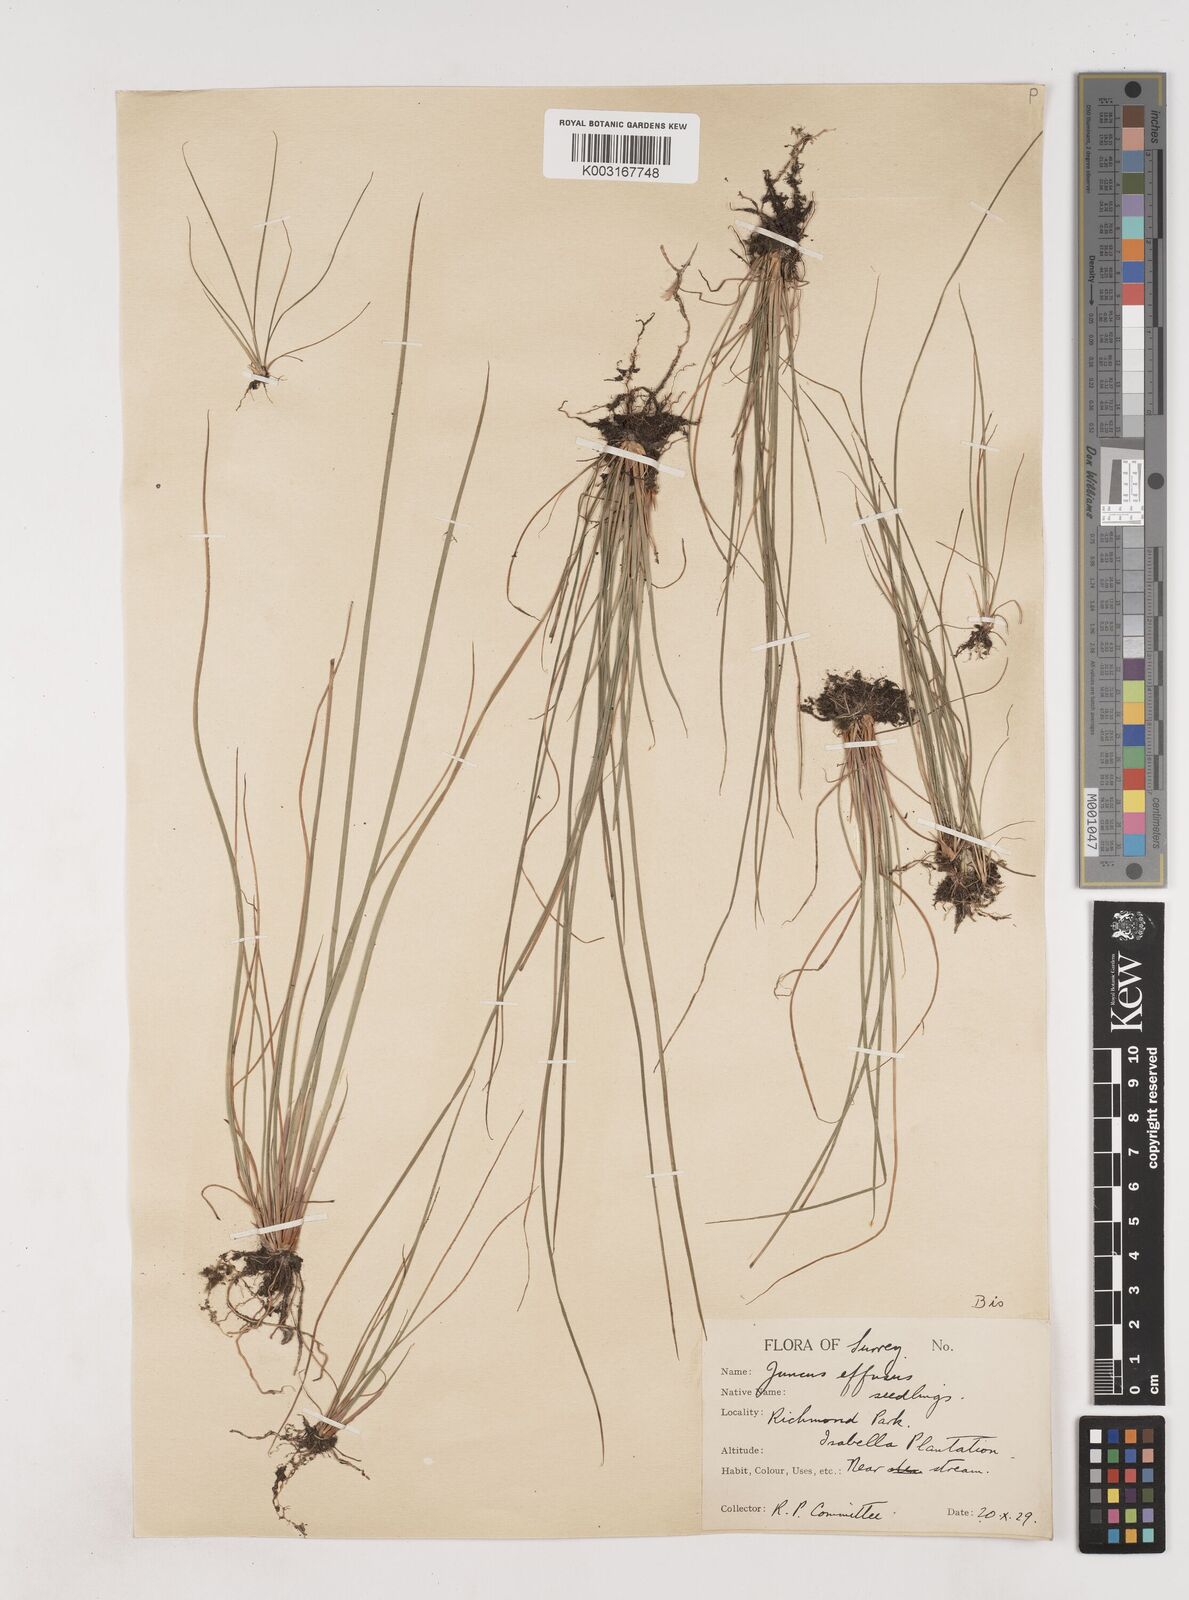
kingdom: Plantae
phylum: Tracheophyta
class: Liliopsida
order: Poales
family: Juncaceae
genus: Juncus
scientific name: Juncus effusus
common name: Soft rush
